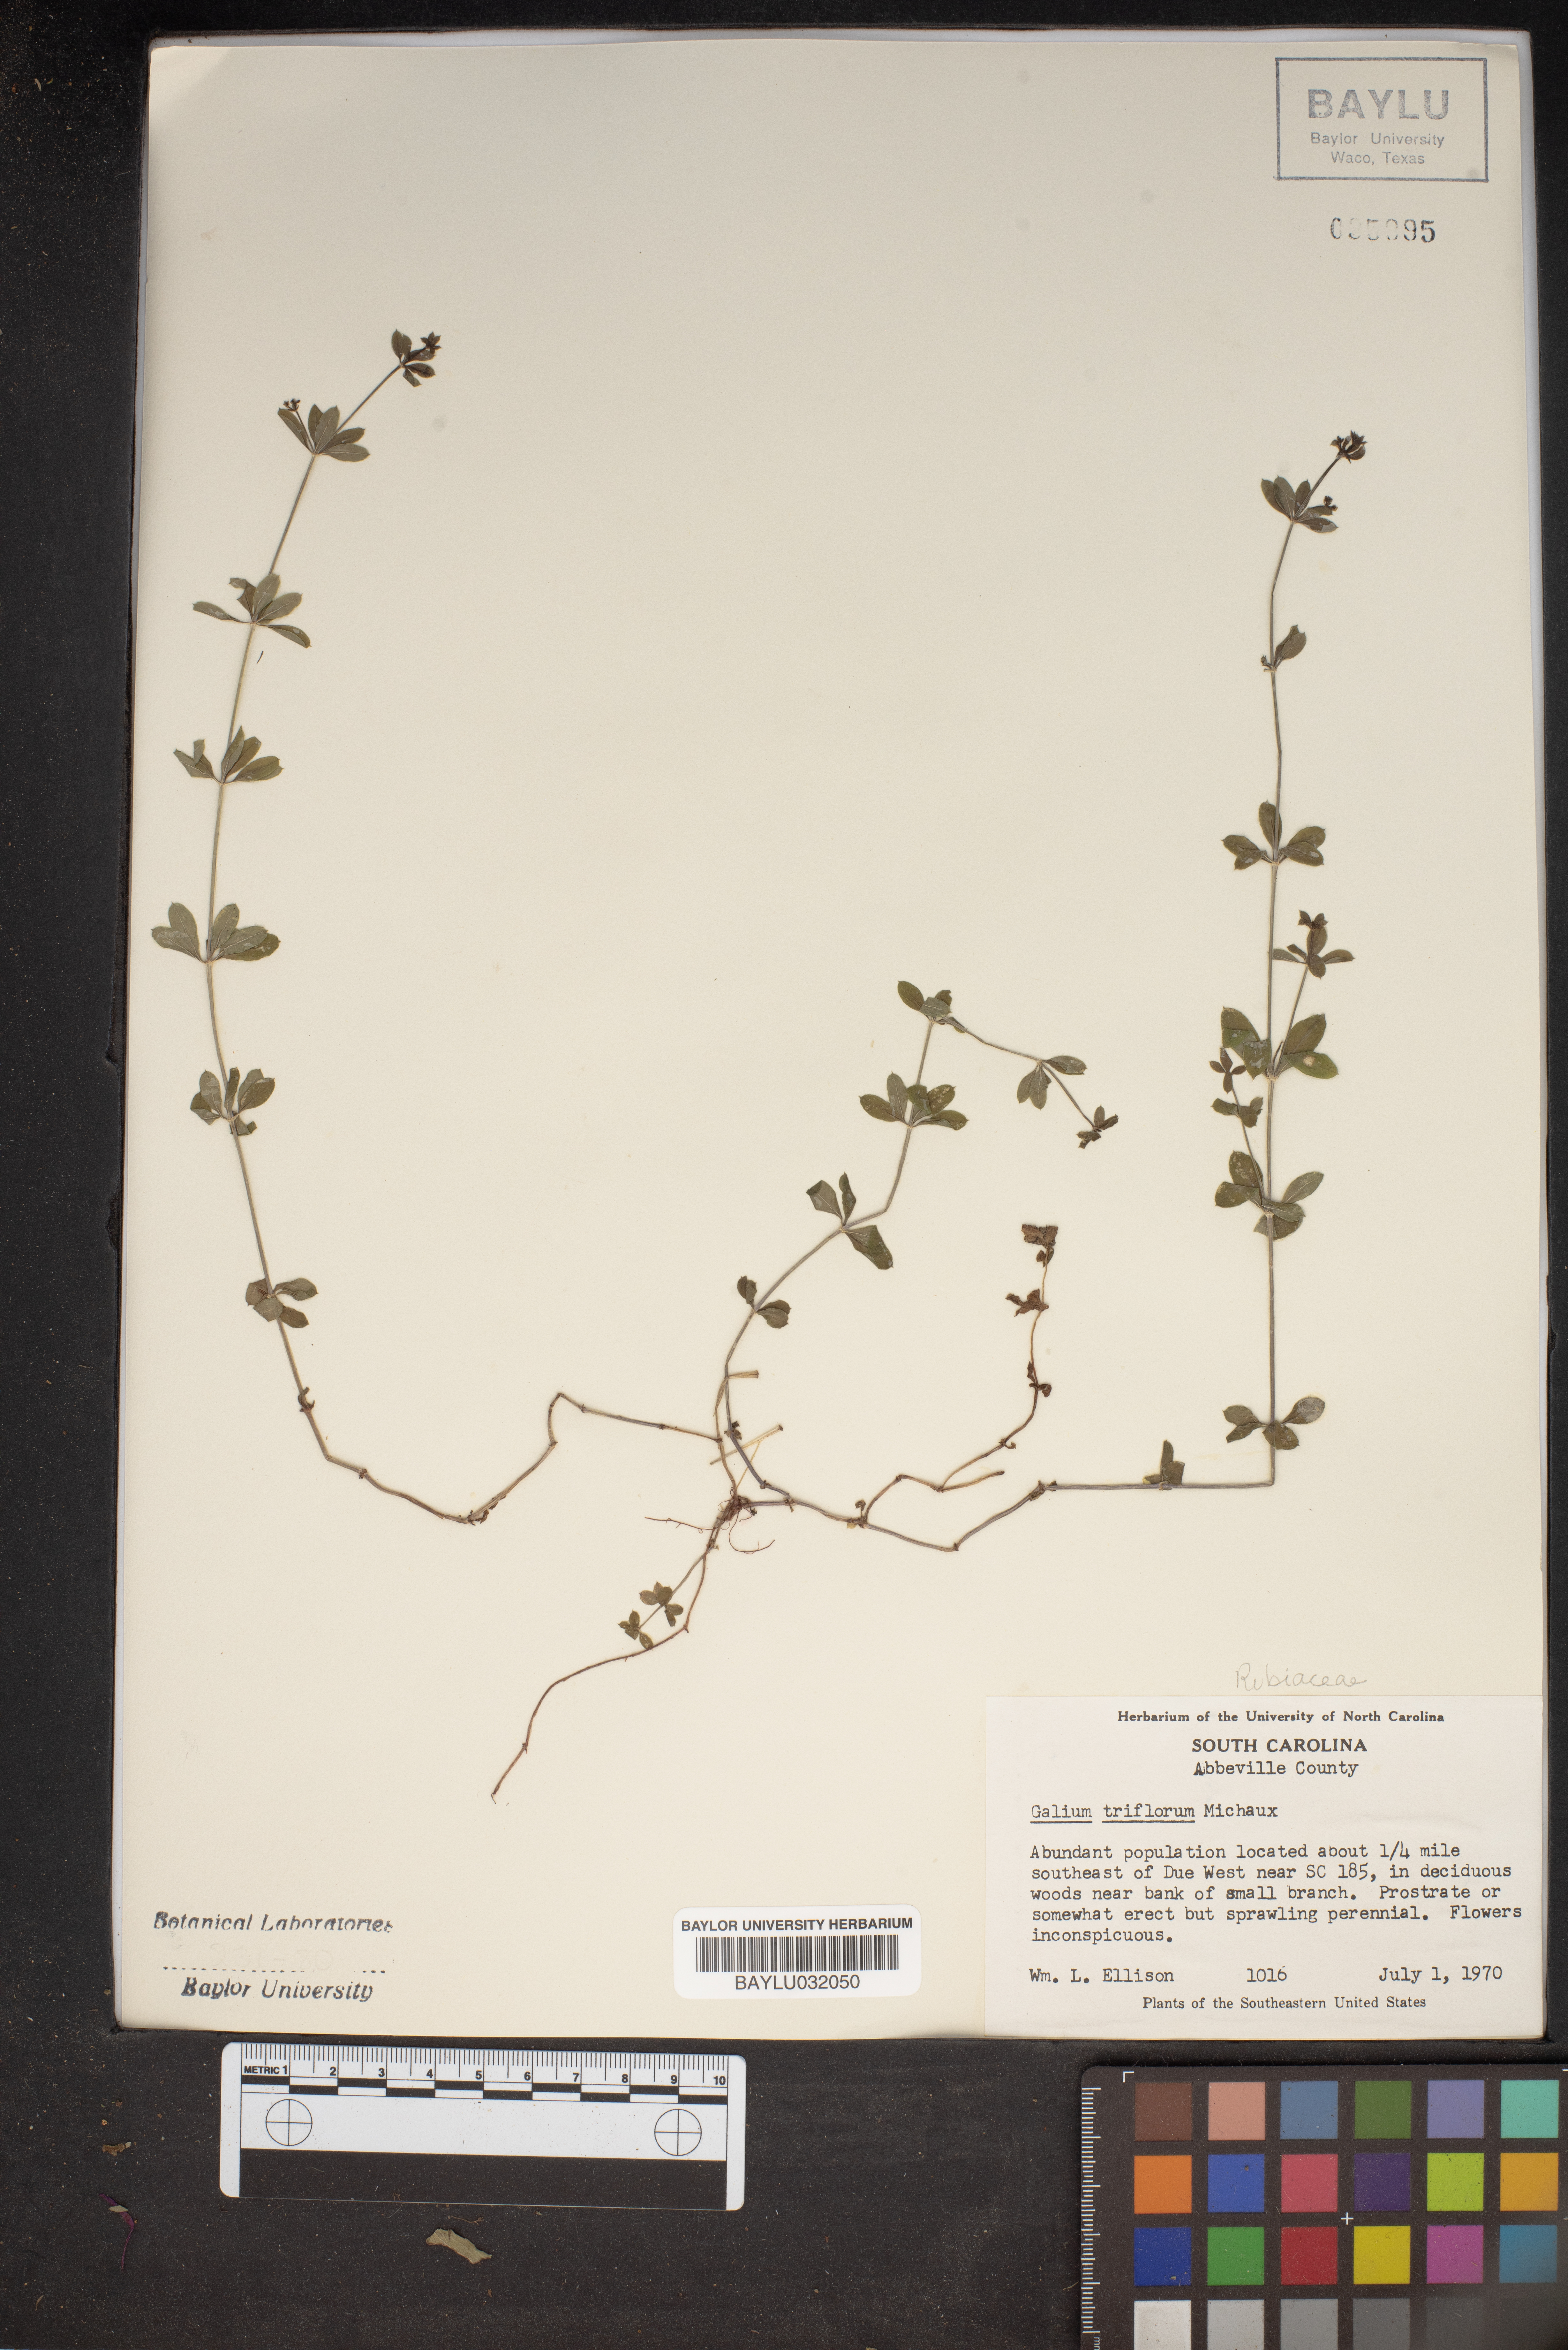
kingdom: Plantae
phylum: Tracheophyta
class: Magnoliopsida
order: Gentianales
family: Rubiaceae
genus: Galium
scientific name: Galium triflorum
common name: Fragrant bedstraw
